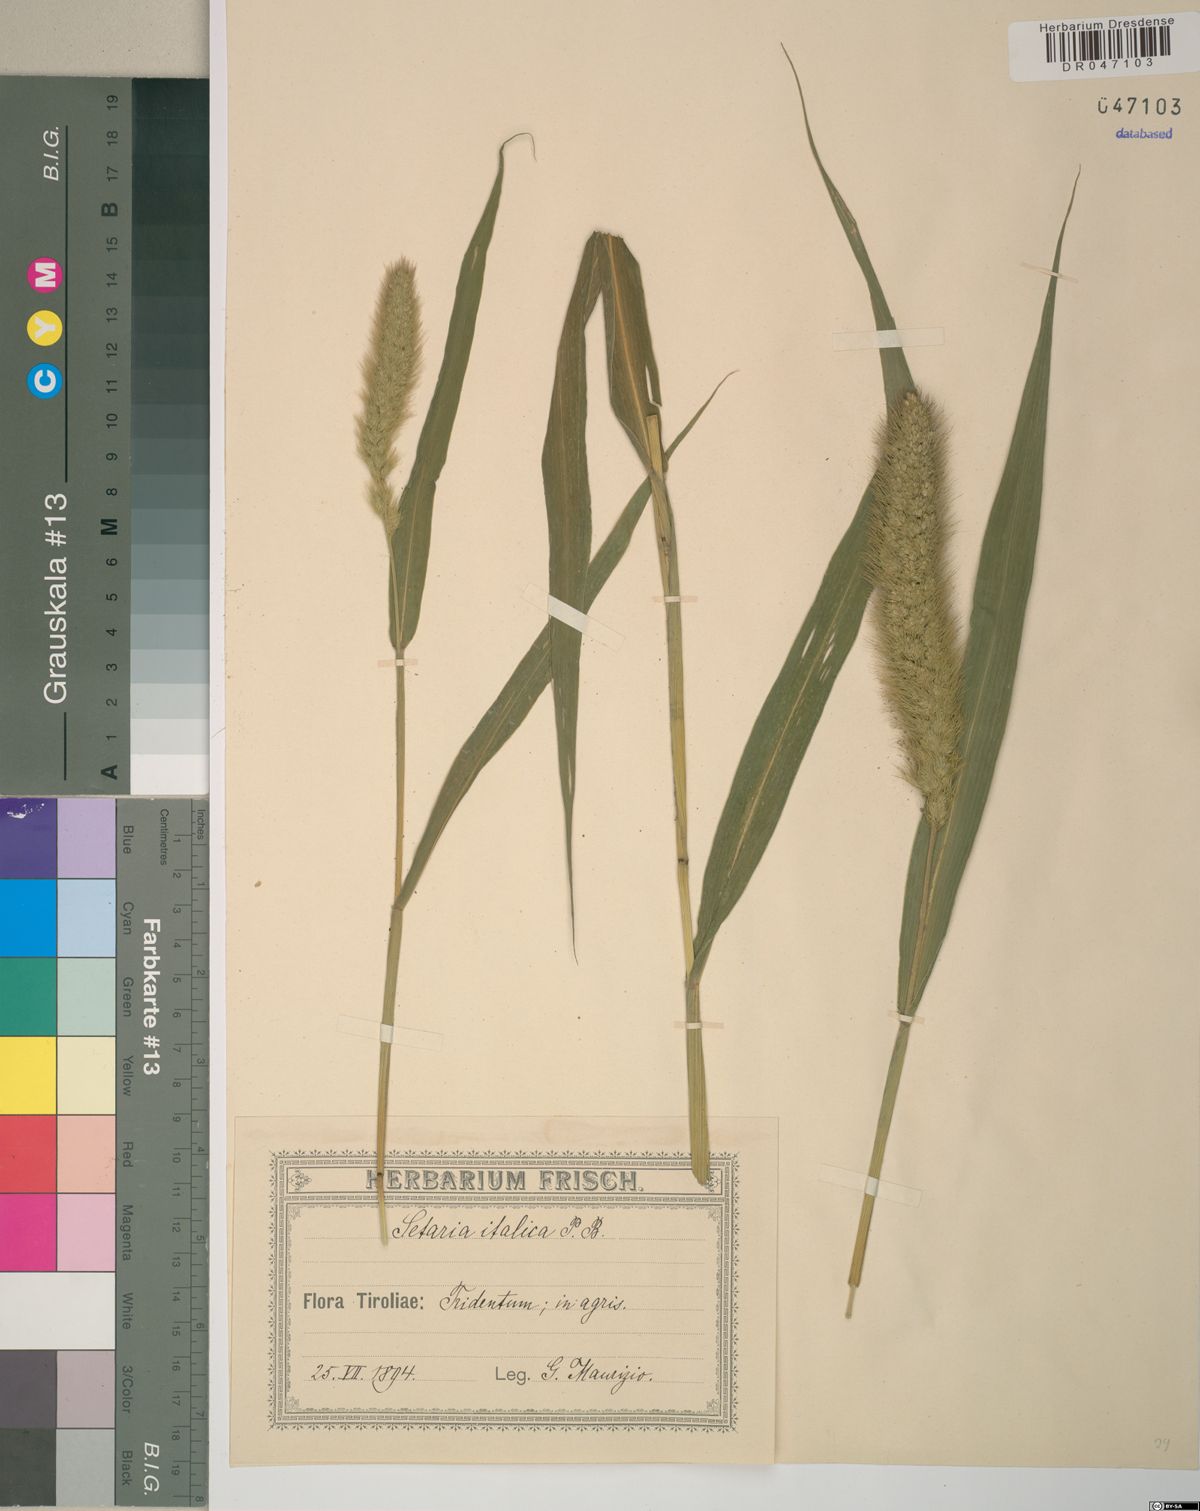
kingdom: Plantae
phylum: Tracheophyta
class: Liliopsida
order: Poales
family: Poaceae
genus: Setaria
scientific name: Setaria italica
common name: Foxtail bristle-grass
